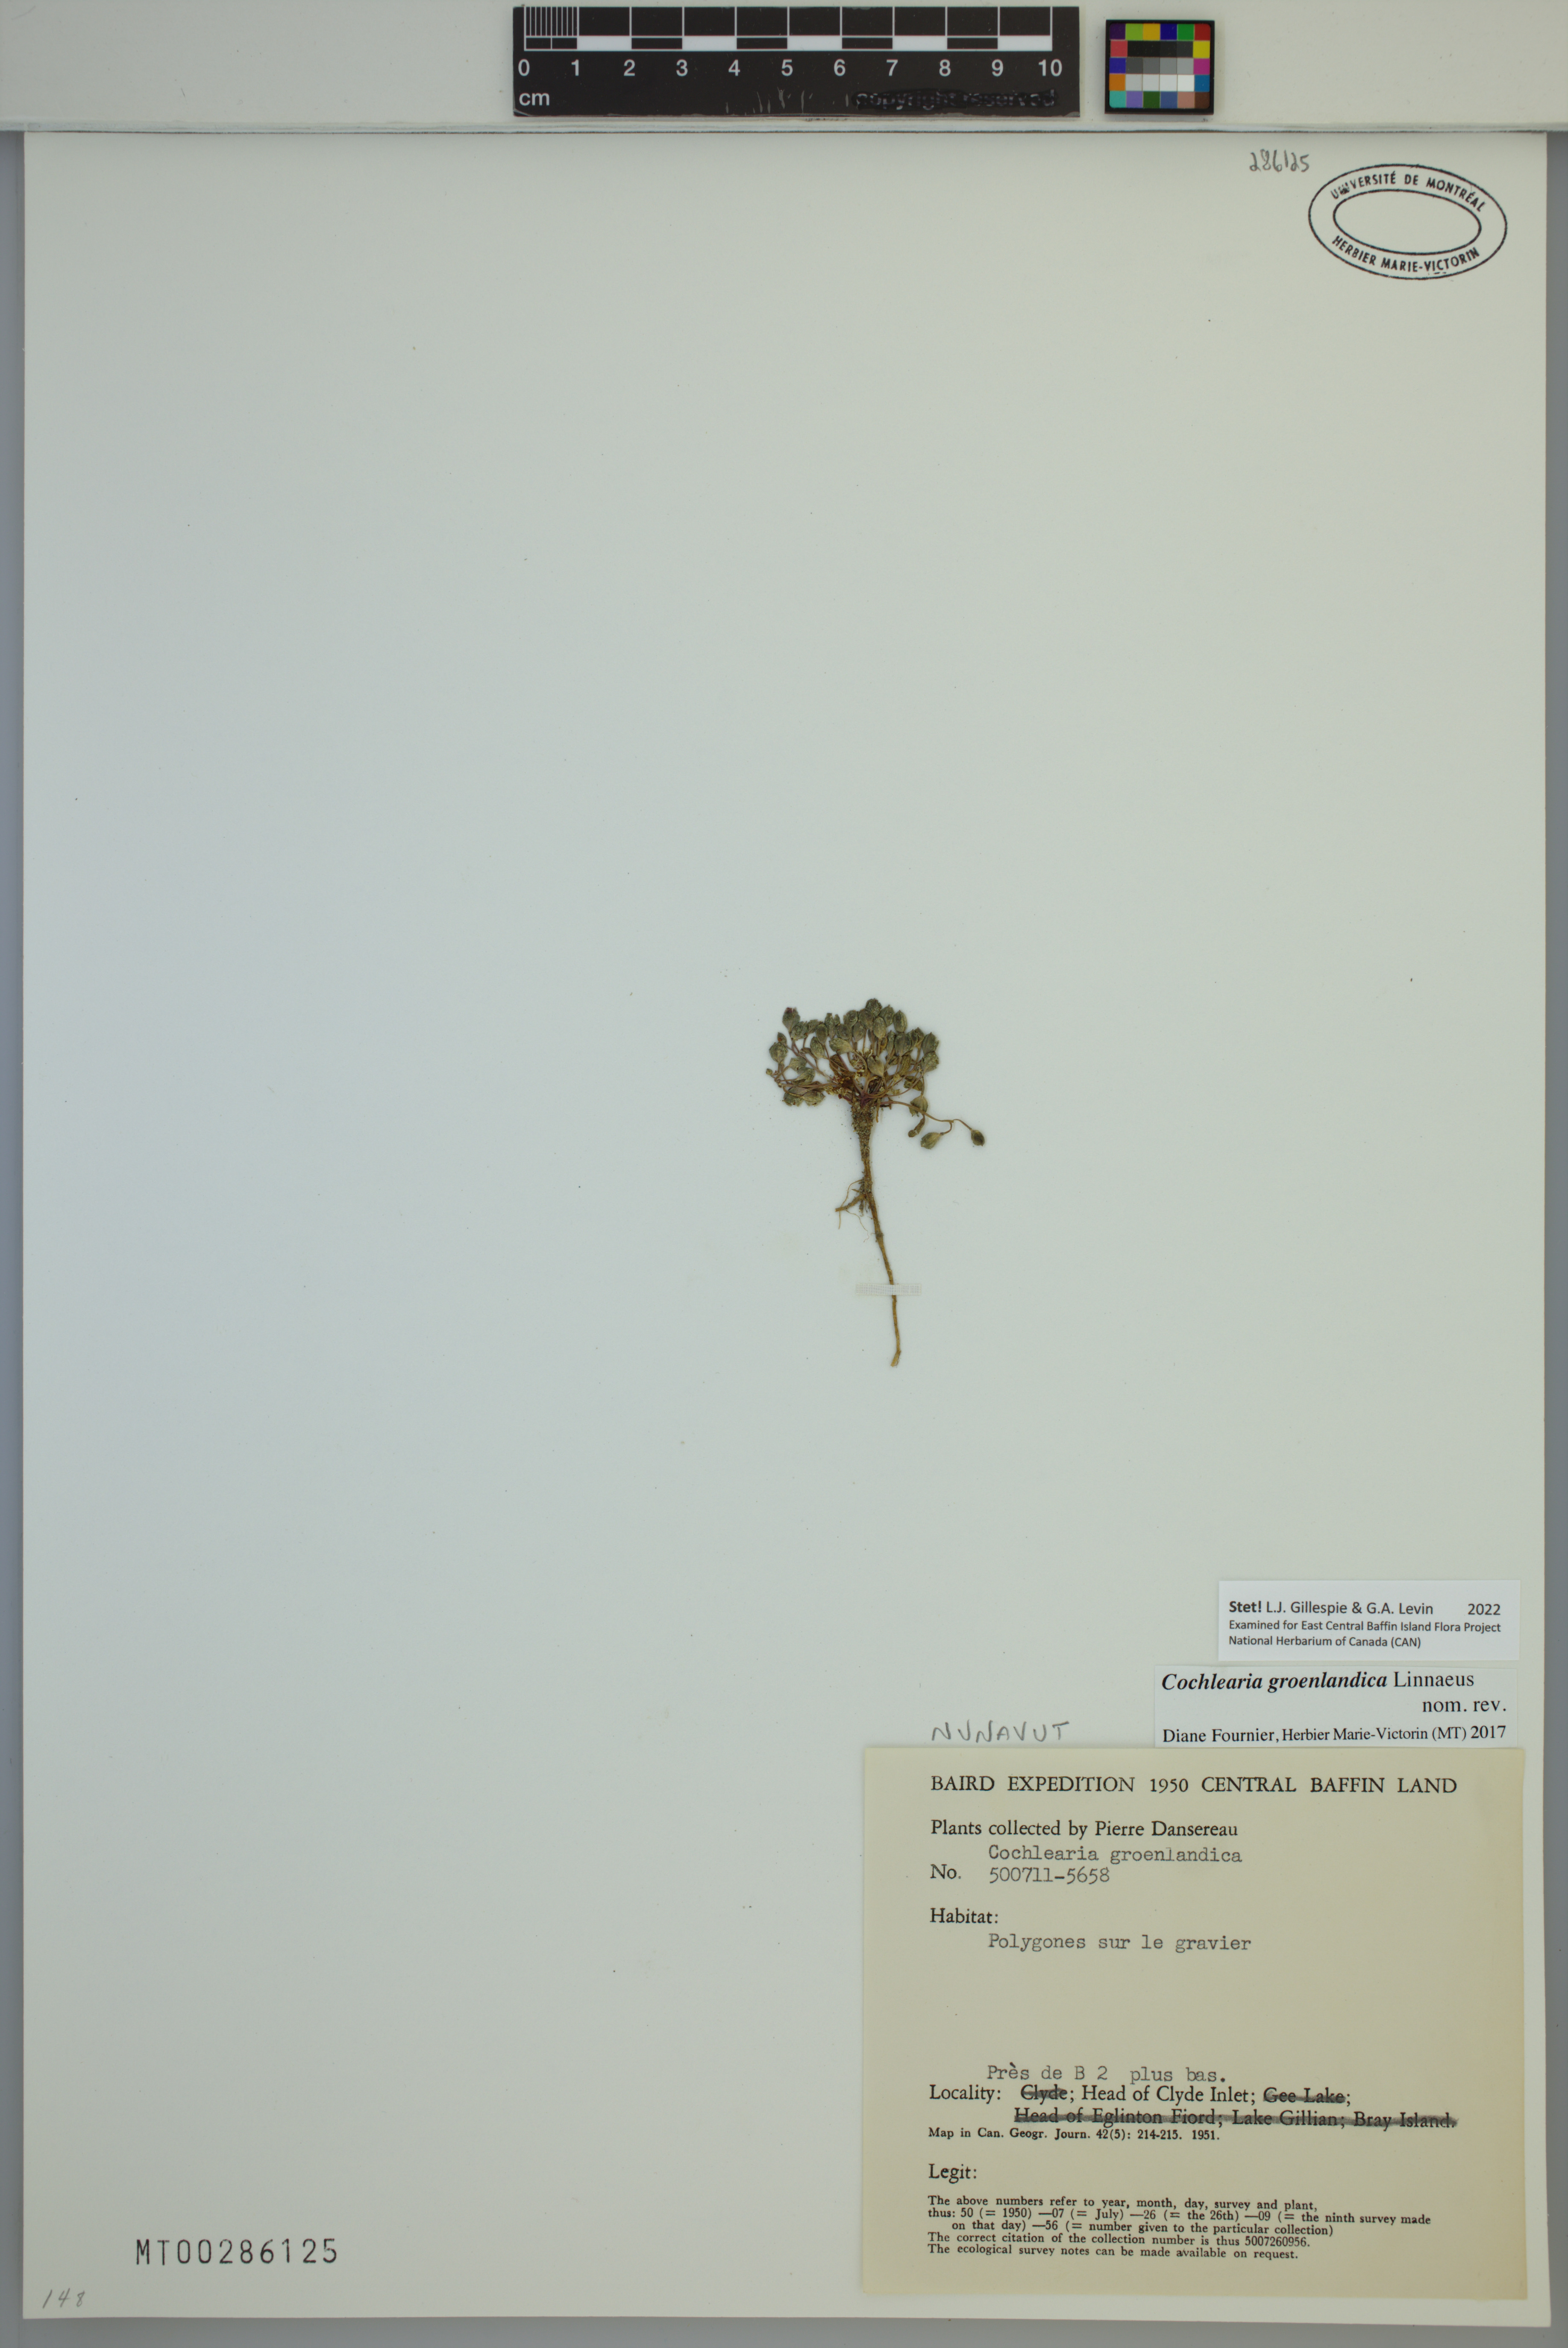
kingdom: Plantae
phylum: Tracheophyta
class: Magnoliopsida
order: Brassicales
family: Brassicaceae
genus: Cochlearia
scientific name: Cochlearia groenlandica
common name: Danish scurvygrass
